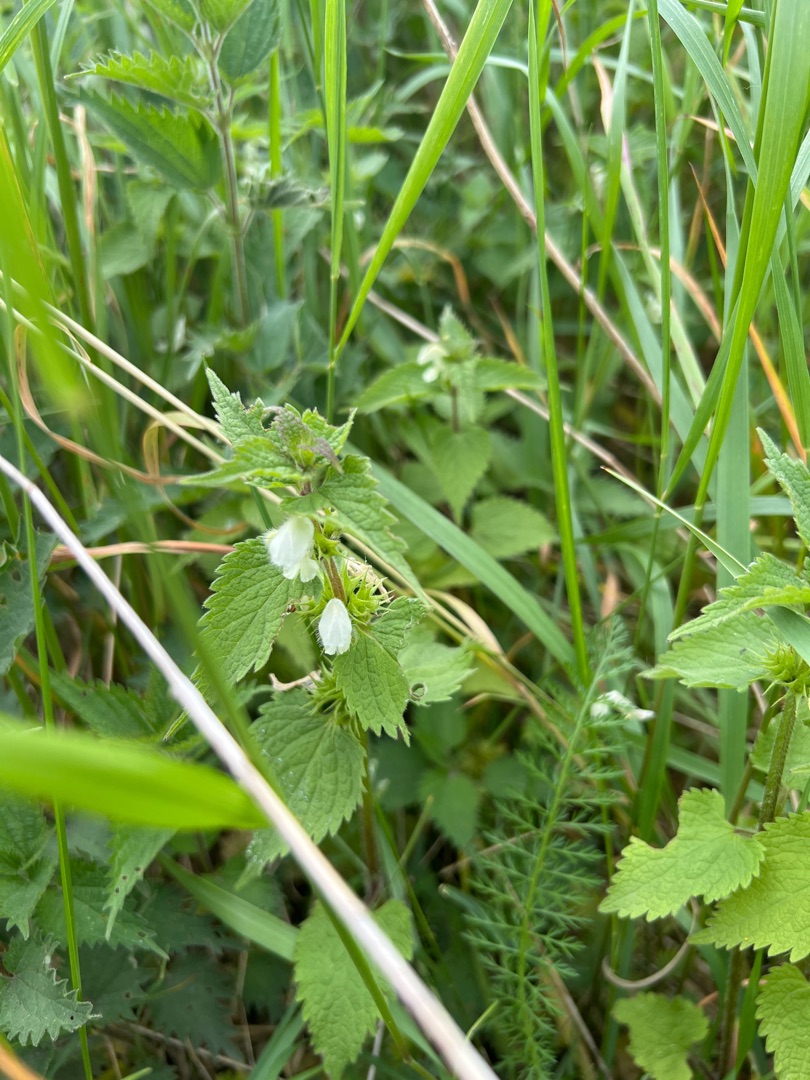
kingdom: Plantae
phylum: Tracheophyta
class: Magnoliopsida
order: Lamiales
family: Lamiaceae
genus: Lamium
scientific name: Lamium album
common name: Døvnælde
